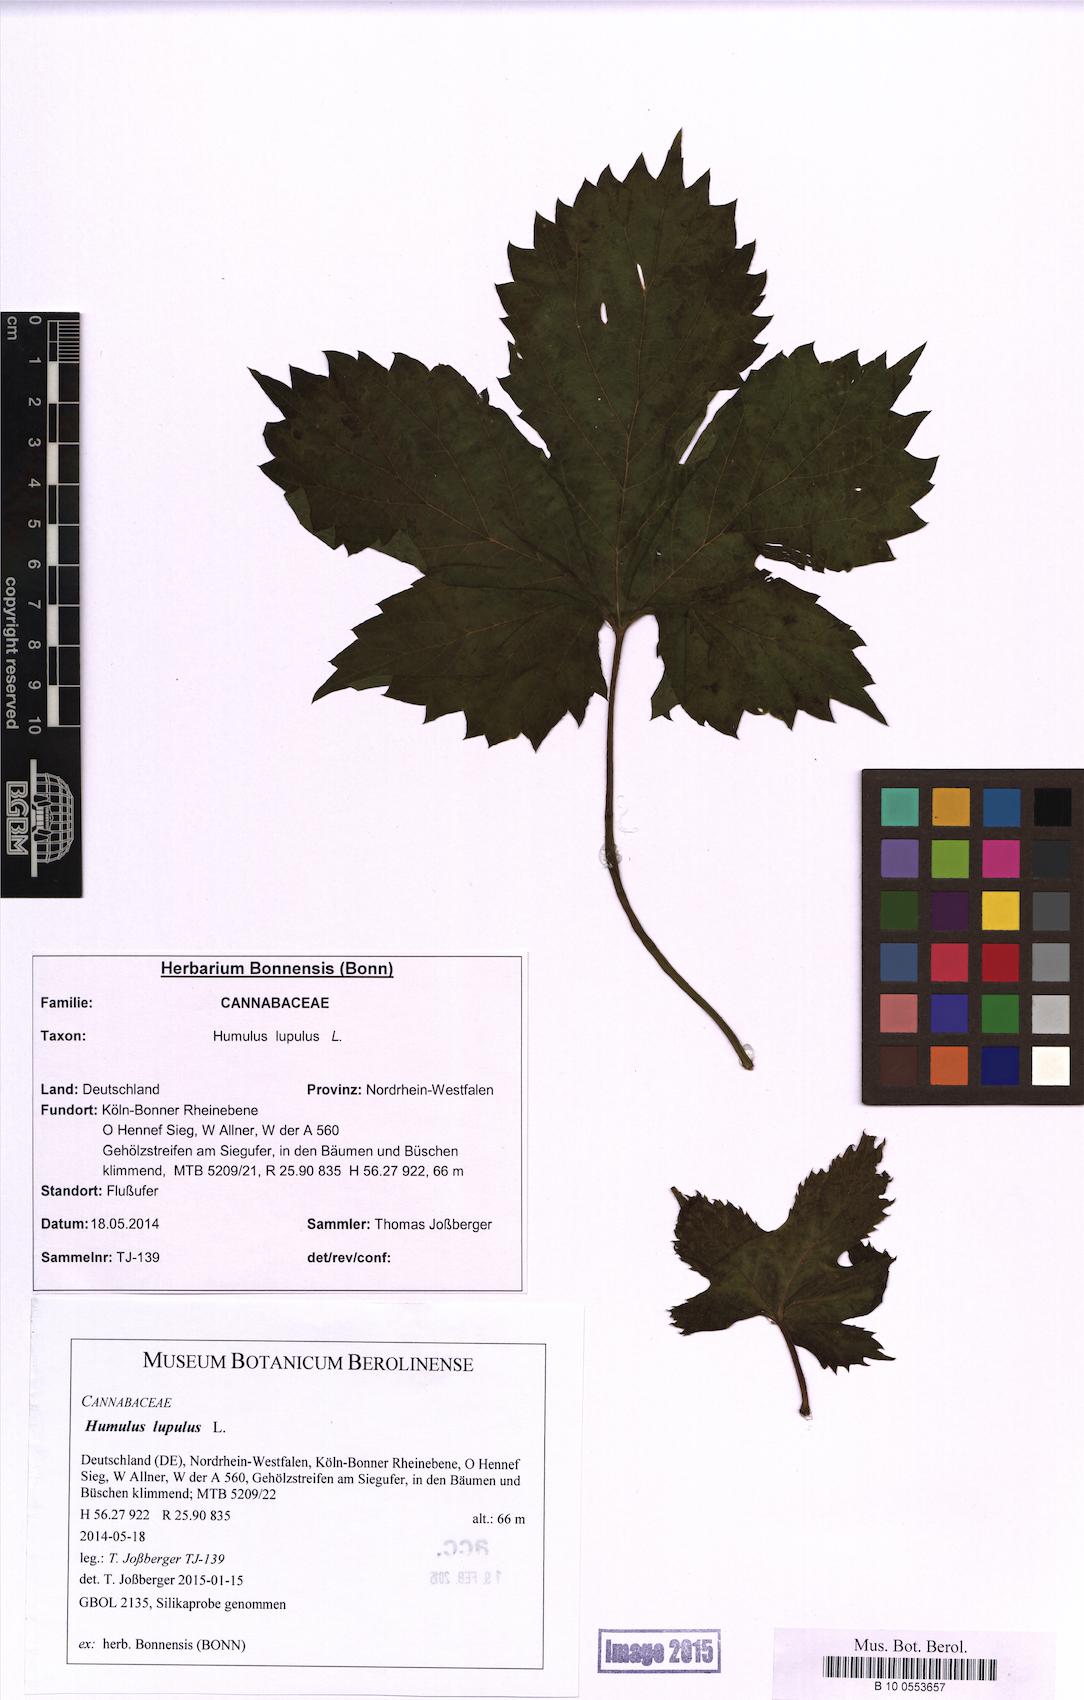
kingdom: Plantae
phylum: Tracheophyta
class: Magnoliopsida
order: Rosales
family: Cannabaceae
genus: Humulus
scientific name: Humulus lupulus
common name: Hop
